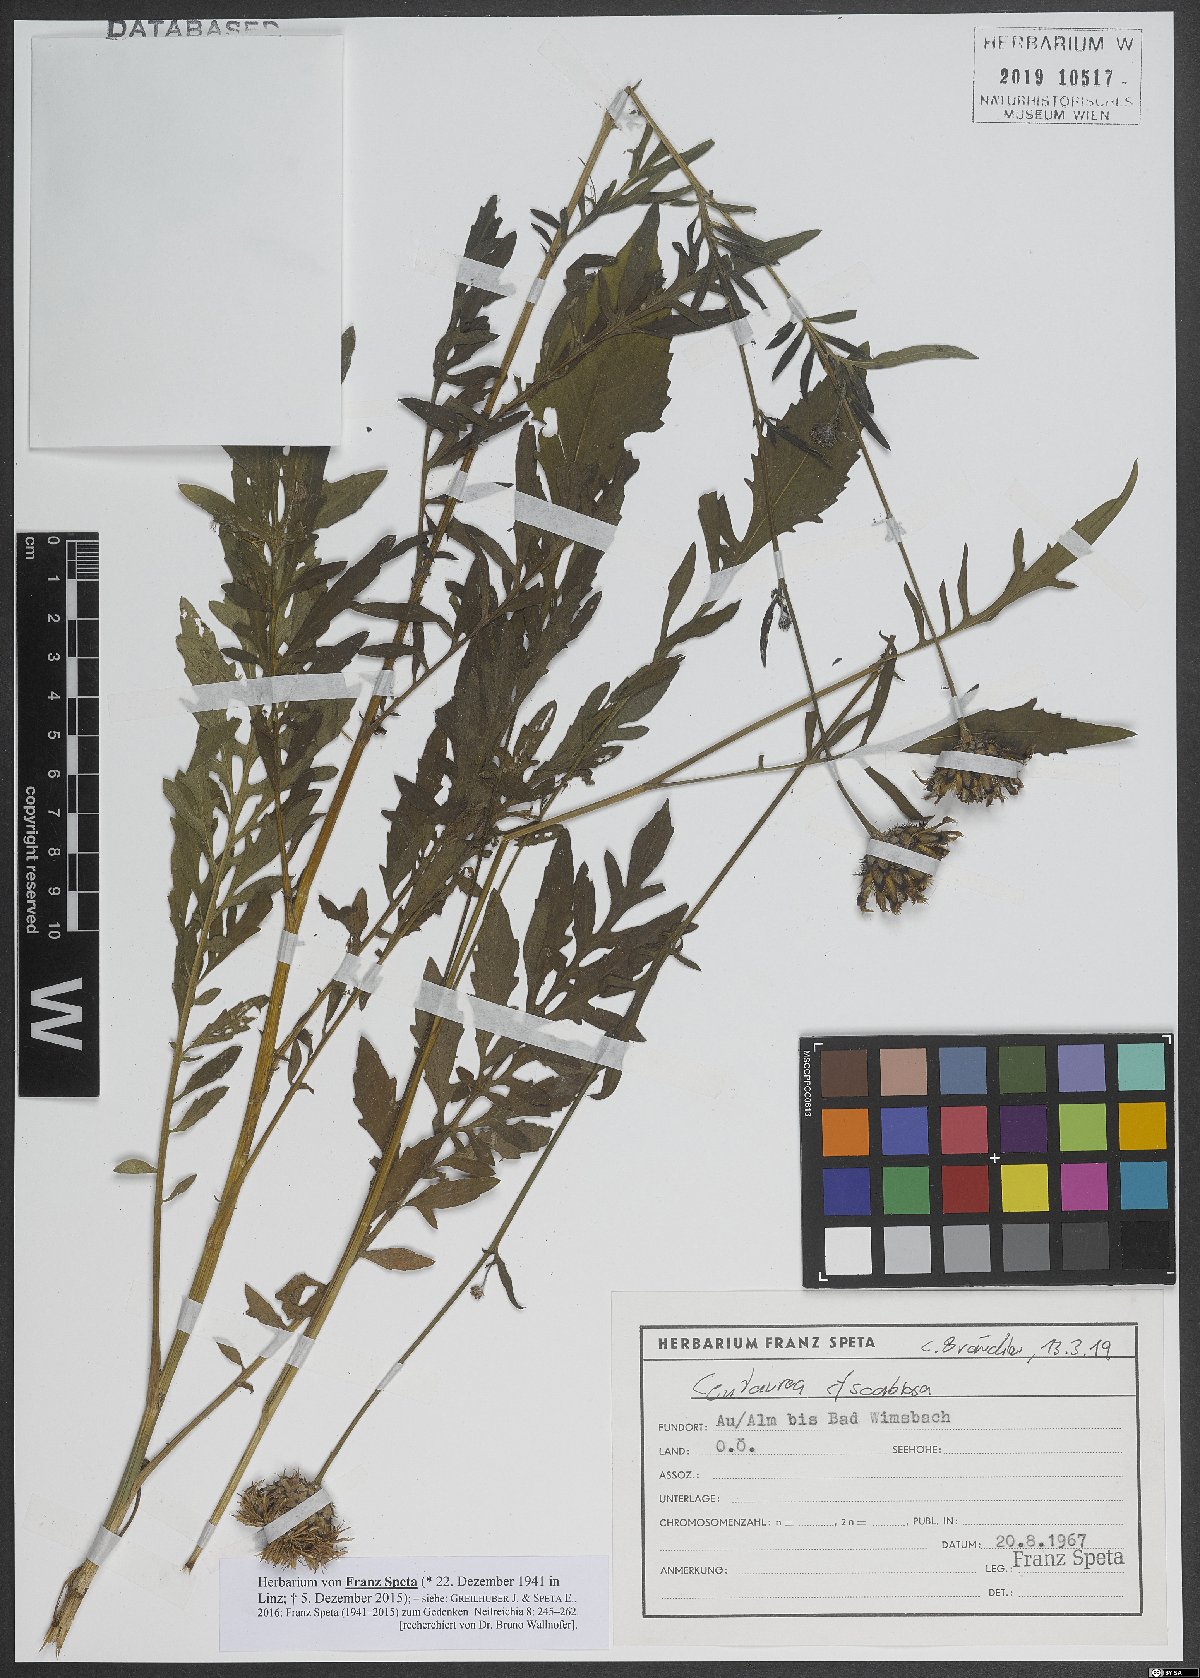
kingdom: Plantae
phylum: Tracheophyta
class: Magnoliopsida
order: Asterales
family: Asteraceae
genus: Centaurea
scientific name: Centaurea scabiosa
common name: Greater knapweed
